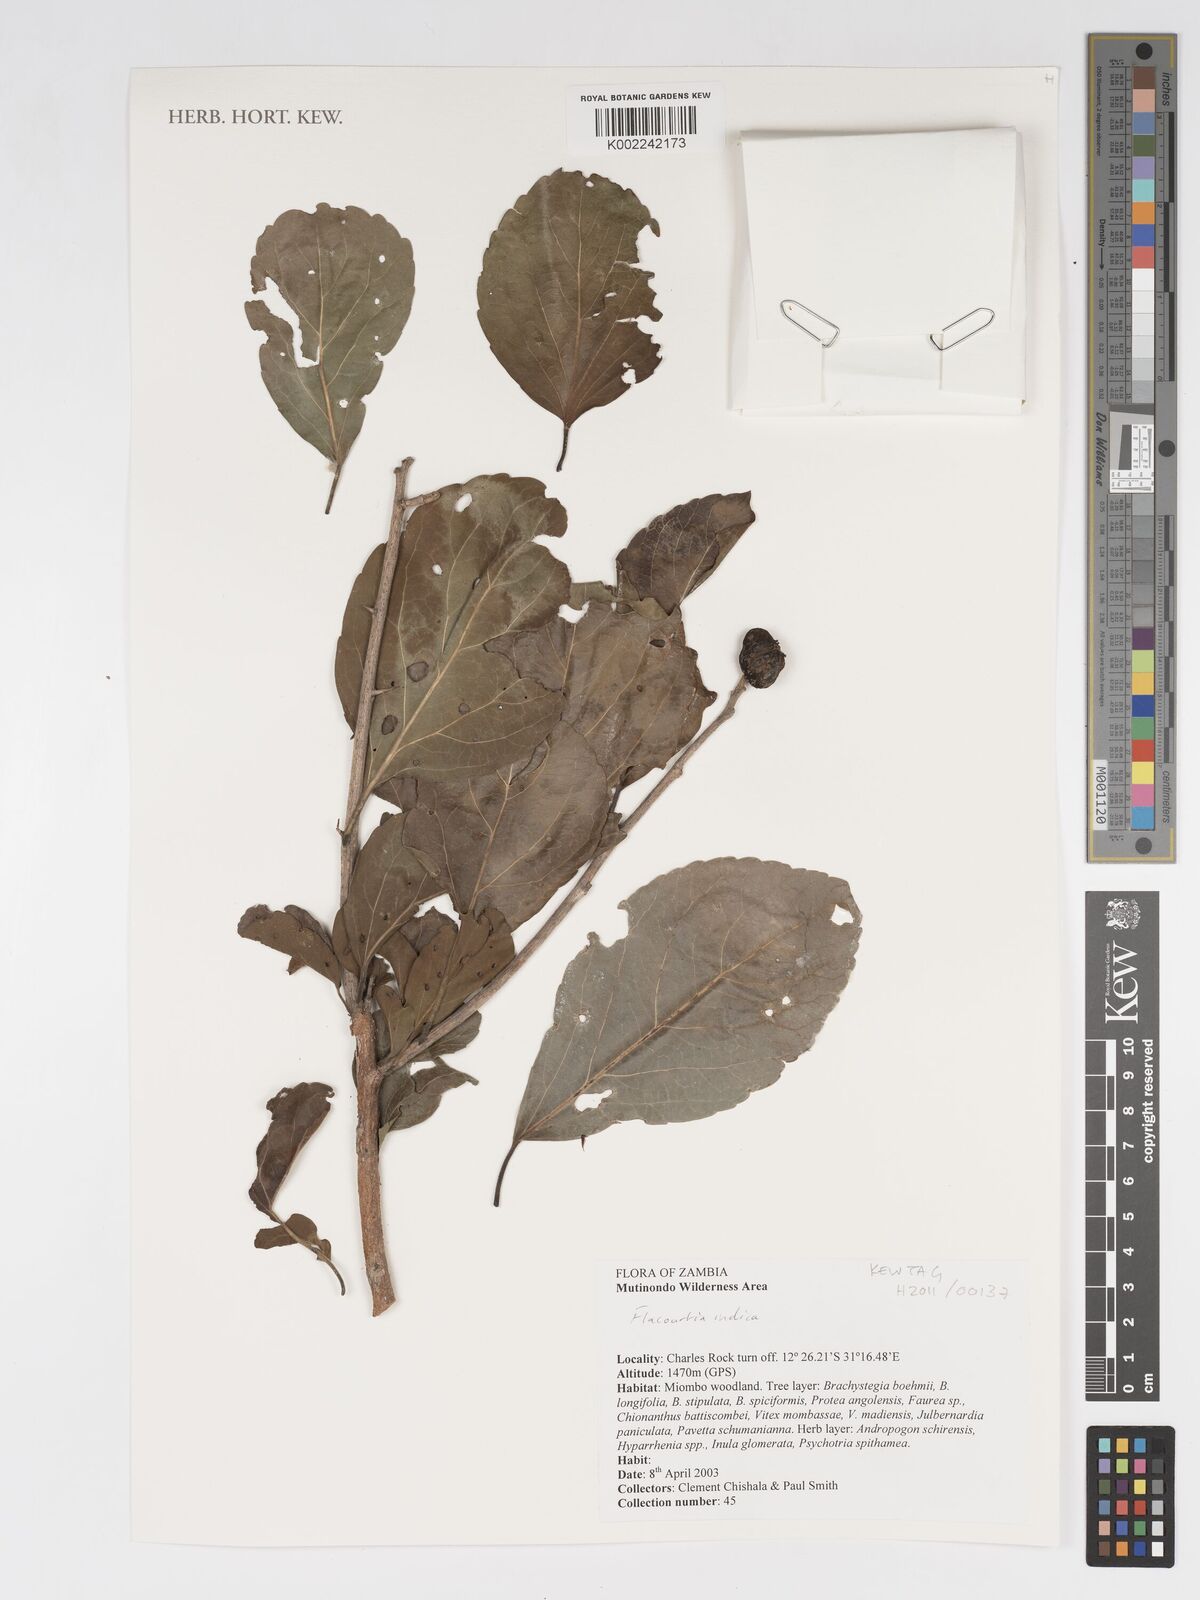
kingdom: Plantae
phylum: Tracheophyta
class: Magnoliopsida
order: Malpighiales
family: Salicaceae
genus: Flacourtia
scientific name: Flacourtia indica
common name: Governor's plum
